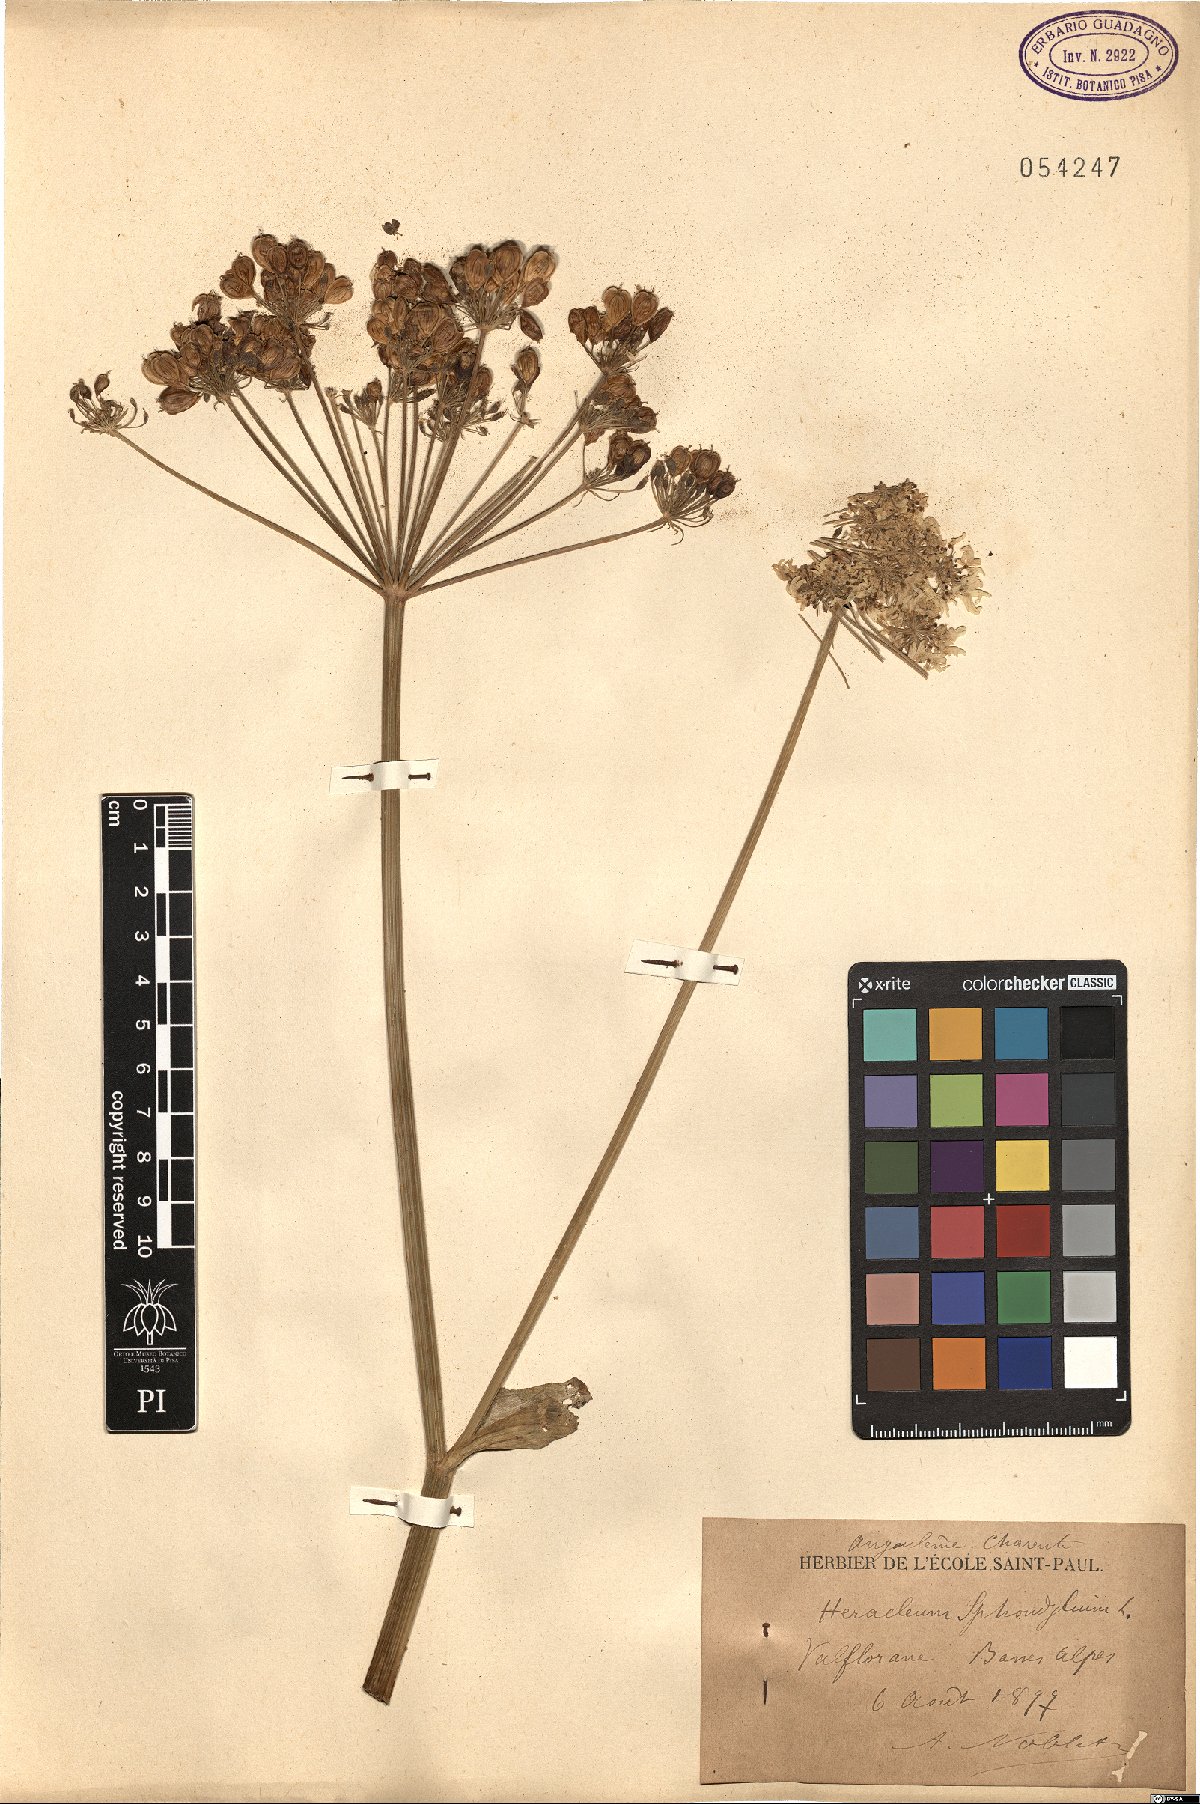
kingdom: Plantae
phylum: Tracheophyta
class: Magnoliopsida
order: Apiales
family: Apiaceae
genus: Heracleum
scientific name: Heracleum sphondylium
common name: Hogweed
